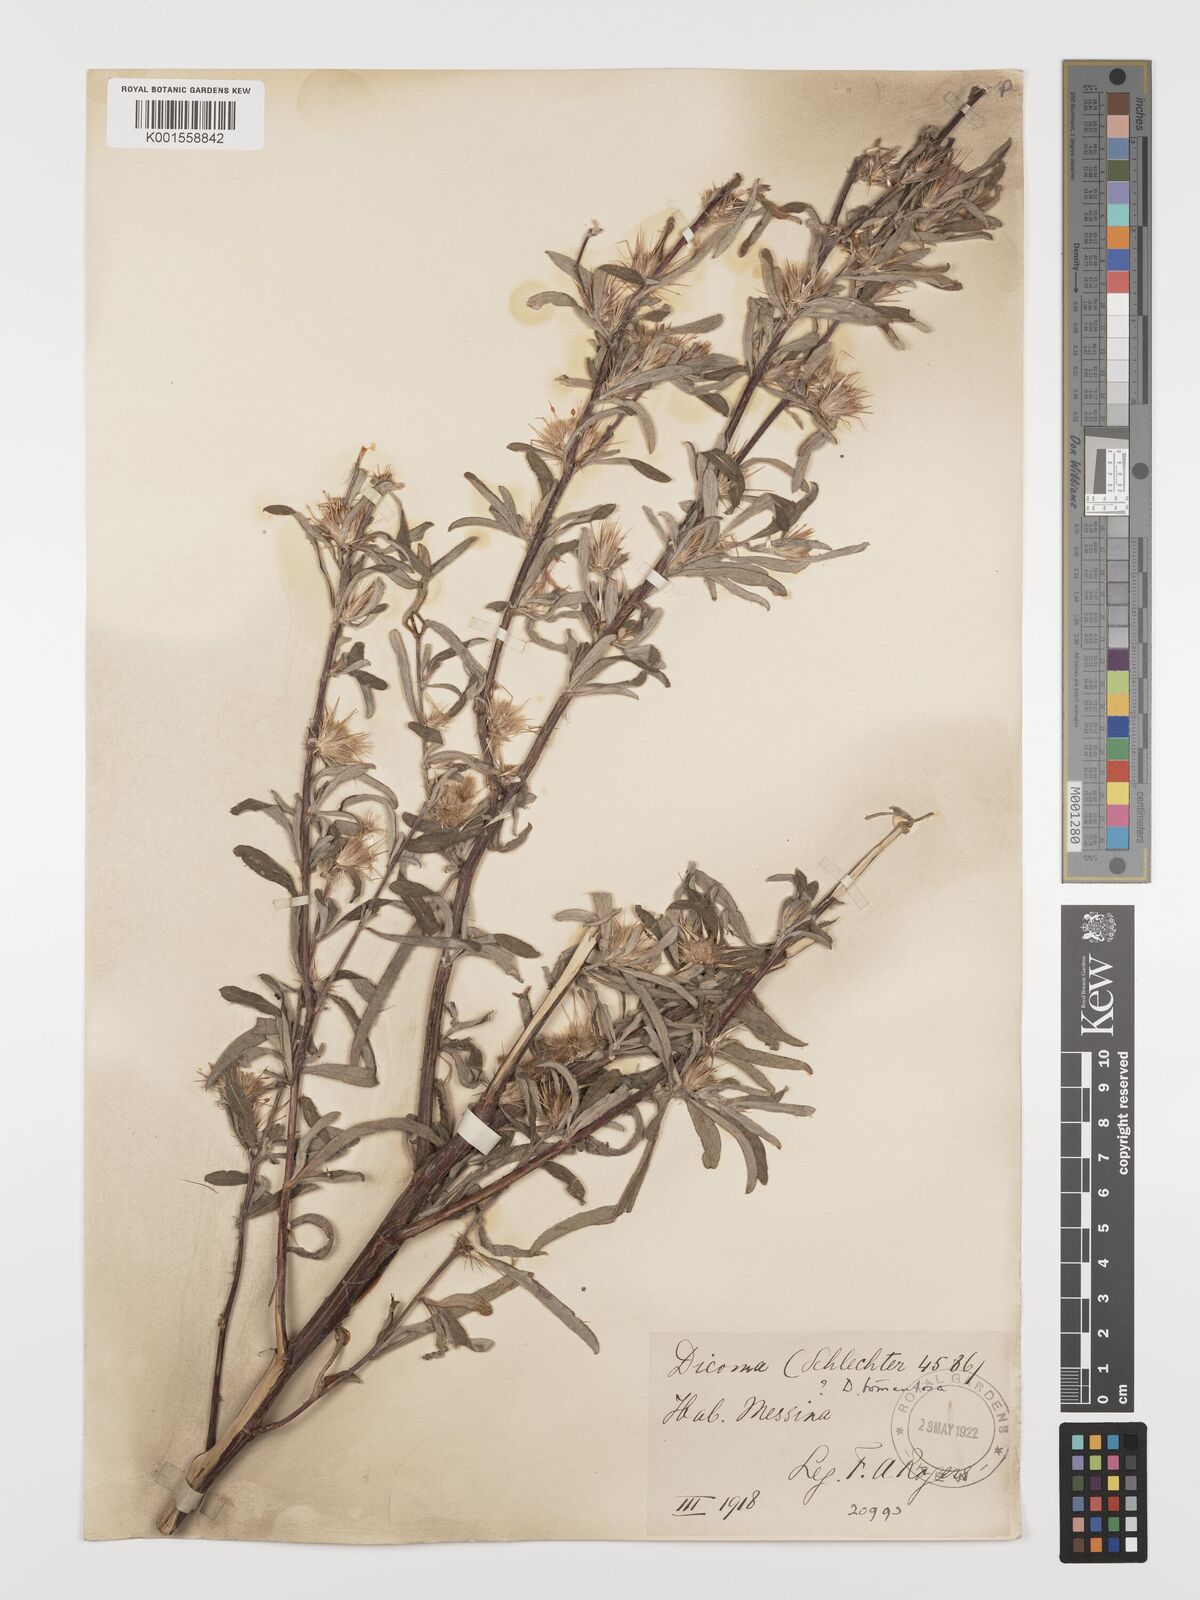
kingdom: Plantae
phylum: Tracheophyta
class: Magnoliopsida
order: Asterales
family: Asteraceae
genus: Dicoma
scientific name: Dicoma tomentosa
